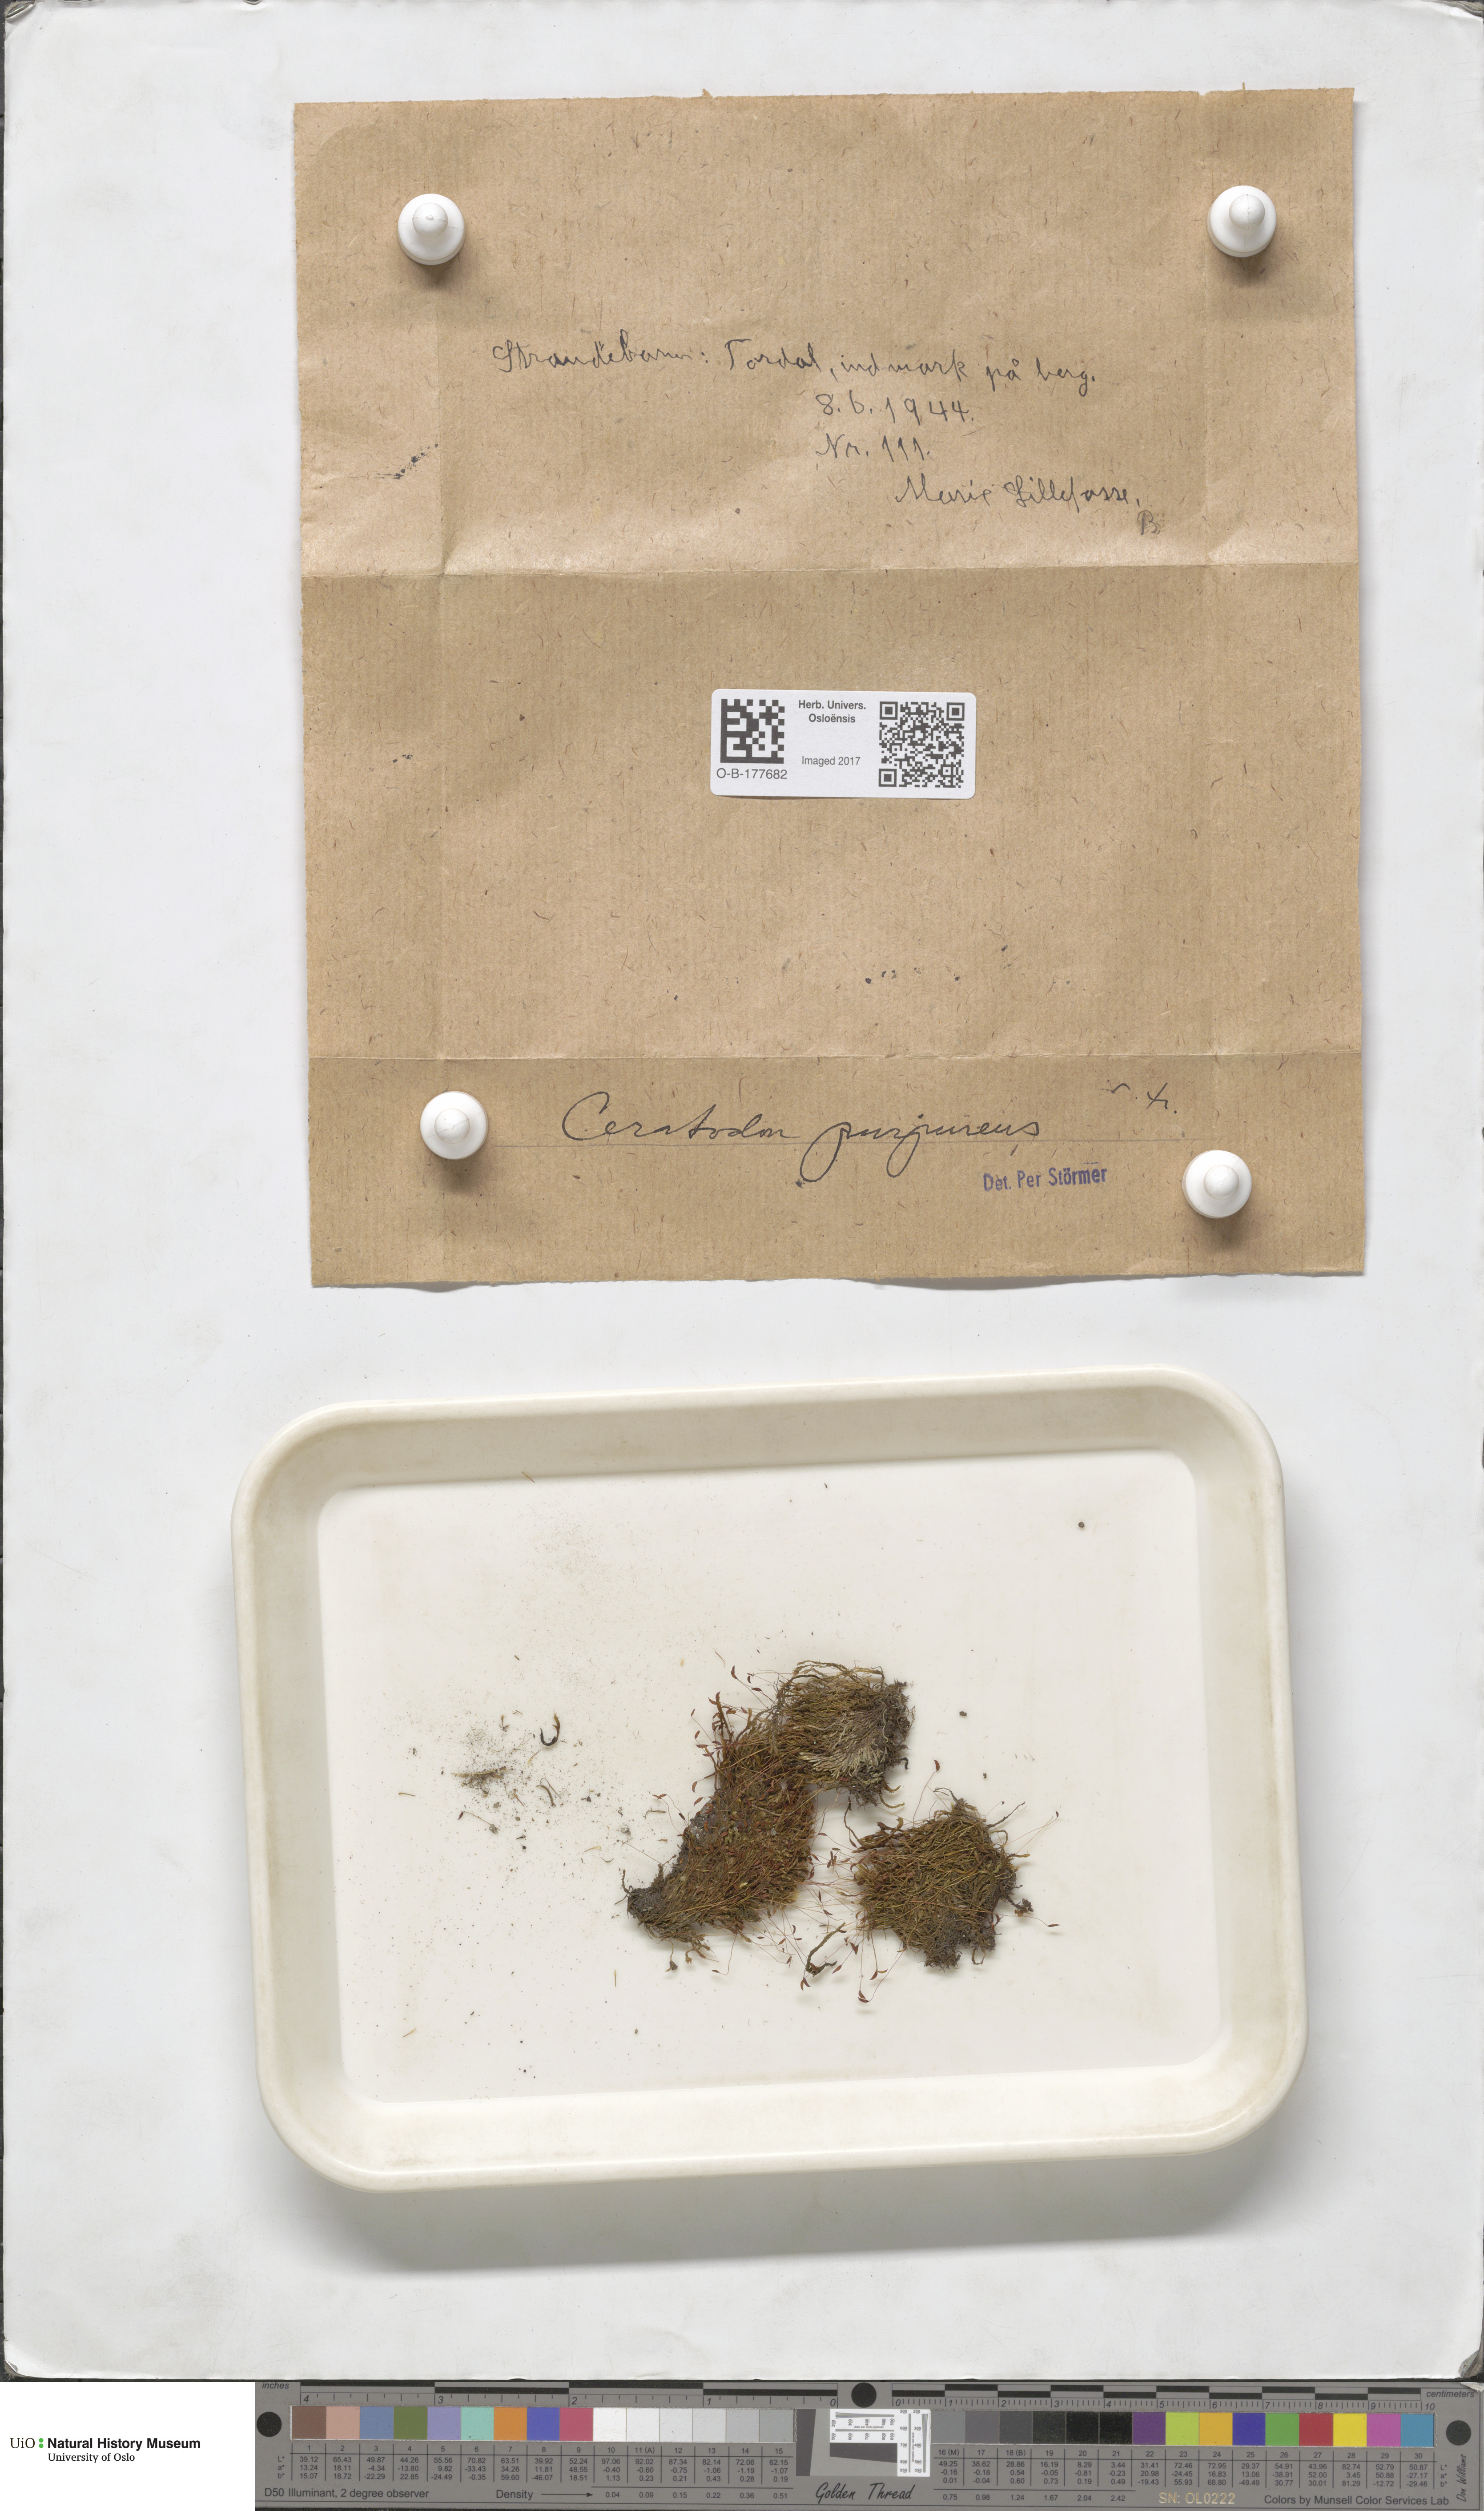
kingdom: Plantae
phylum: Bryophyta
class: Bryopsida
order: Dicranales
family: Ditrichaceae
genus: Ceratodon
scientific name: Ceratodon purpureus
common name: Redshank
